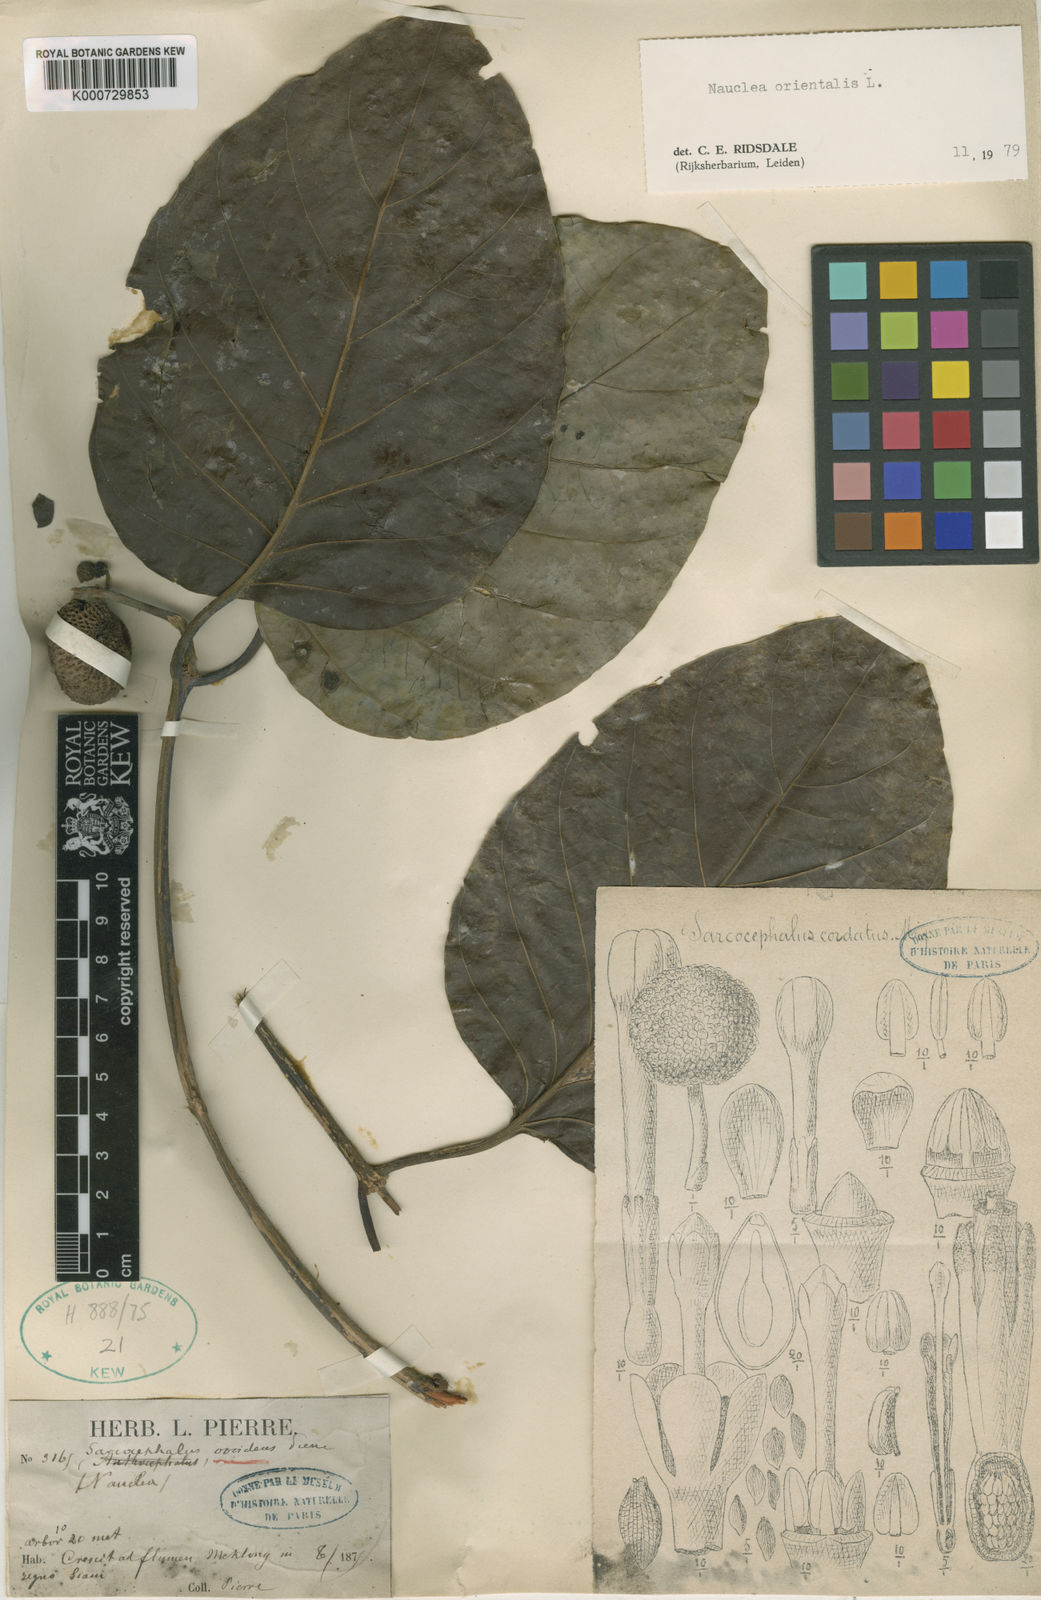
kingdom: Plantae
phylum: Tracheophyta
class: Magnoliopsida
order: Gentianales
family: Rubiaceae
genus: Nauclea
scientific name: Nauclea officinalis
